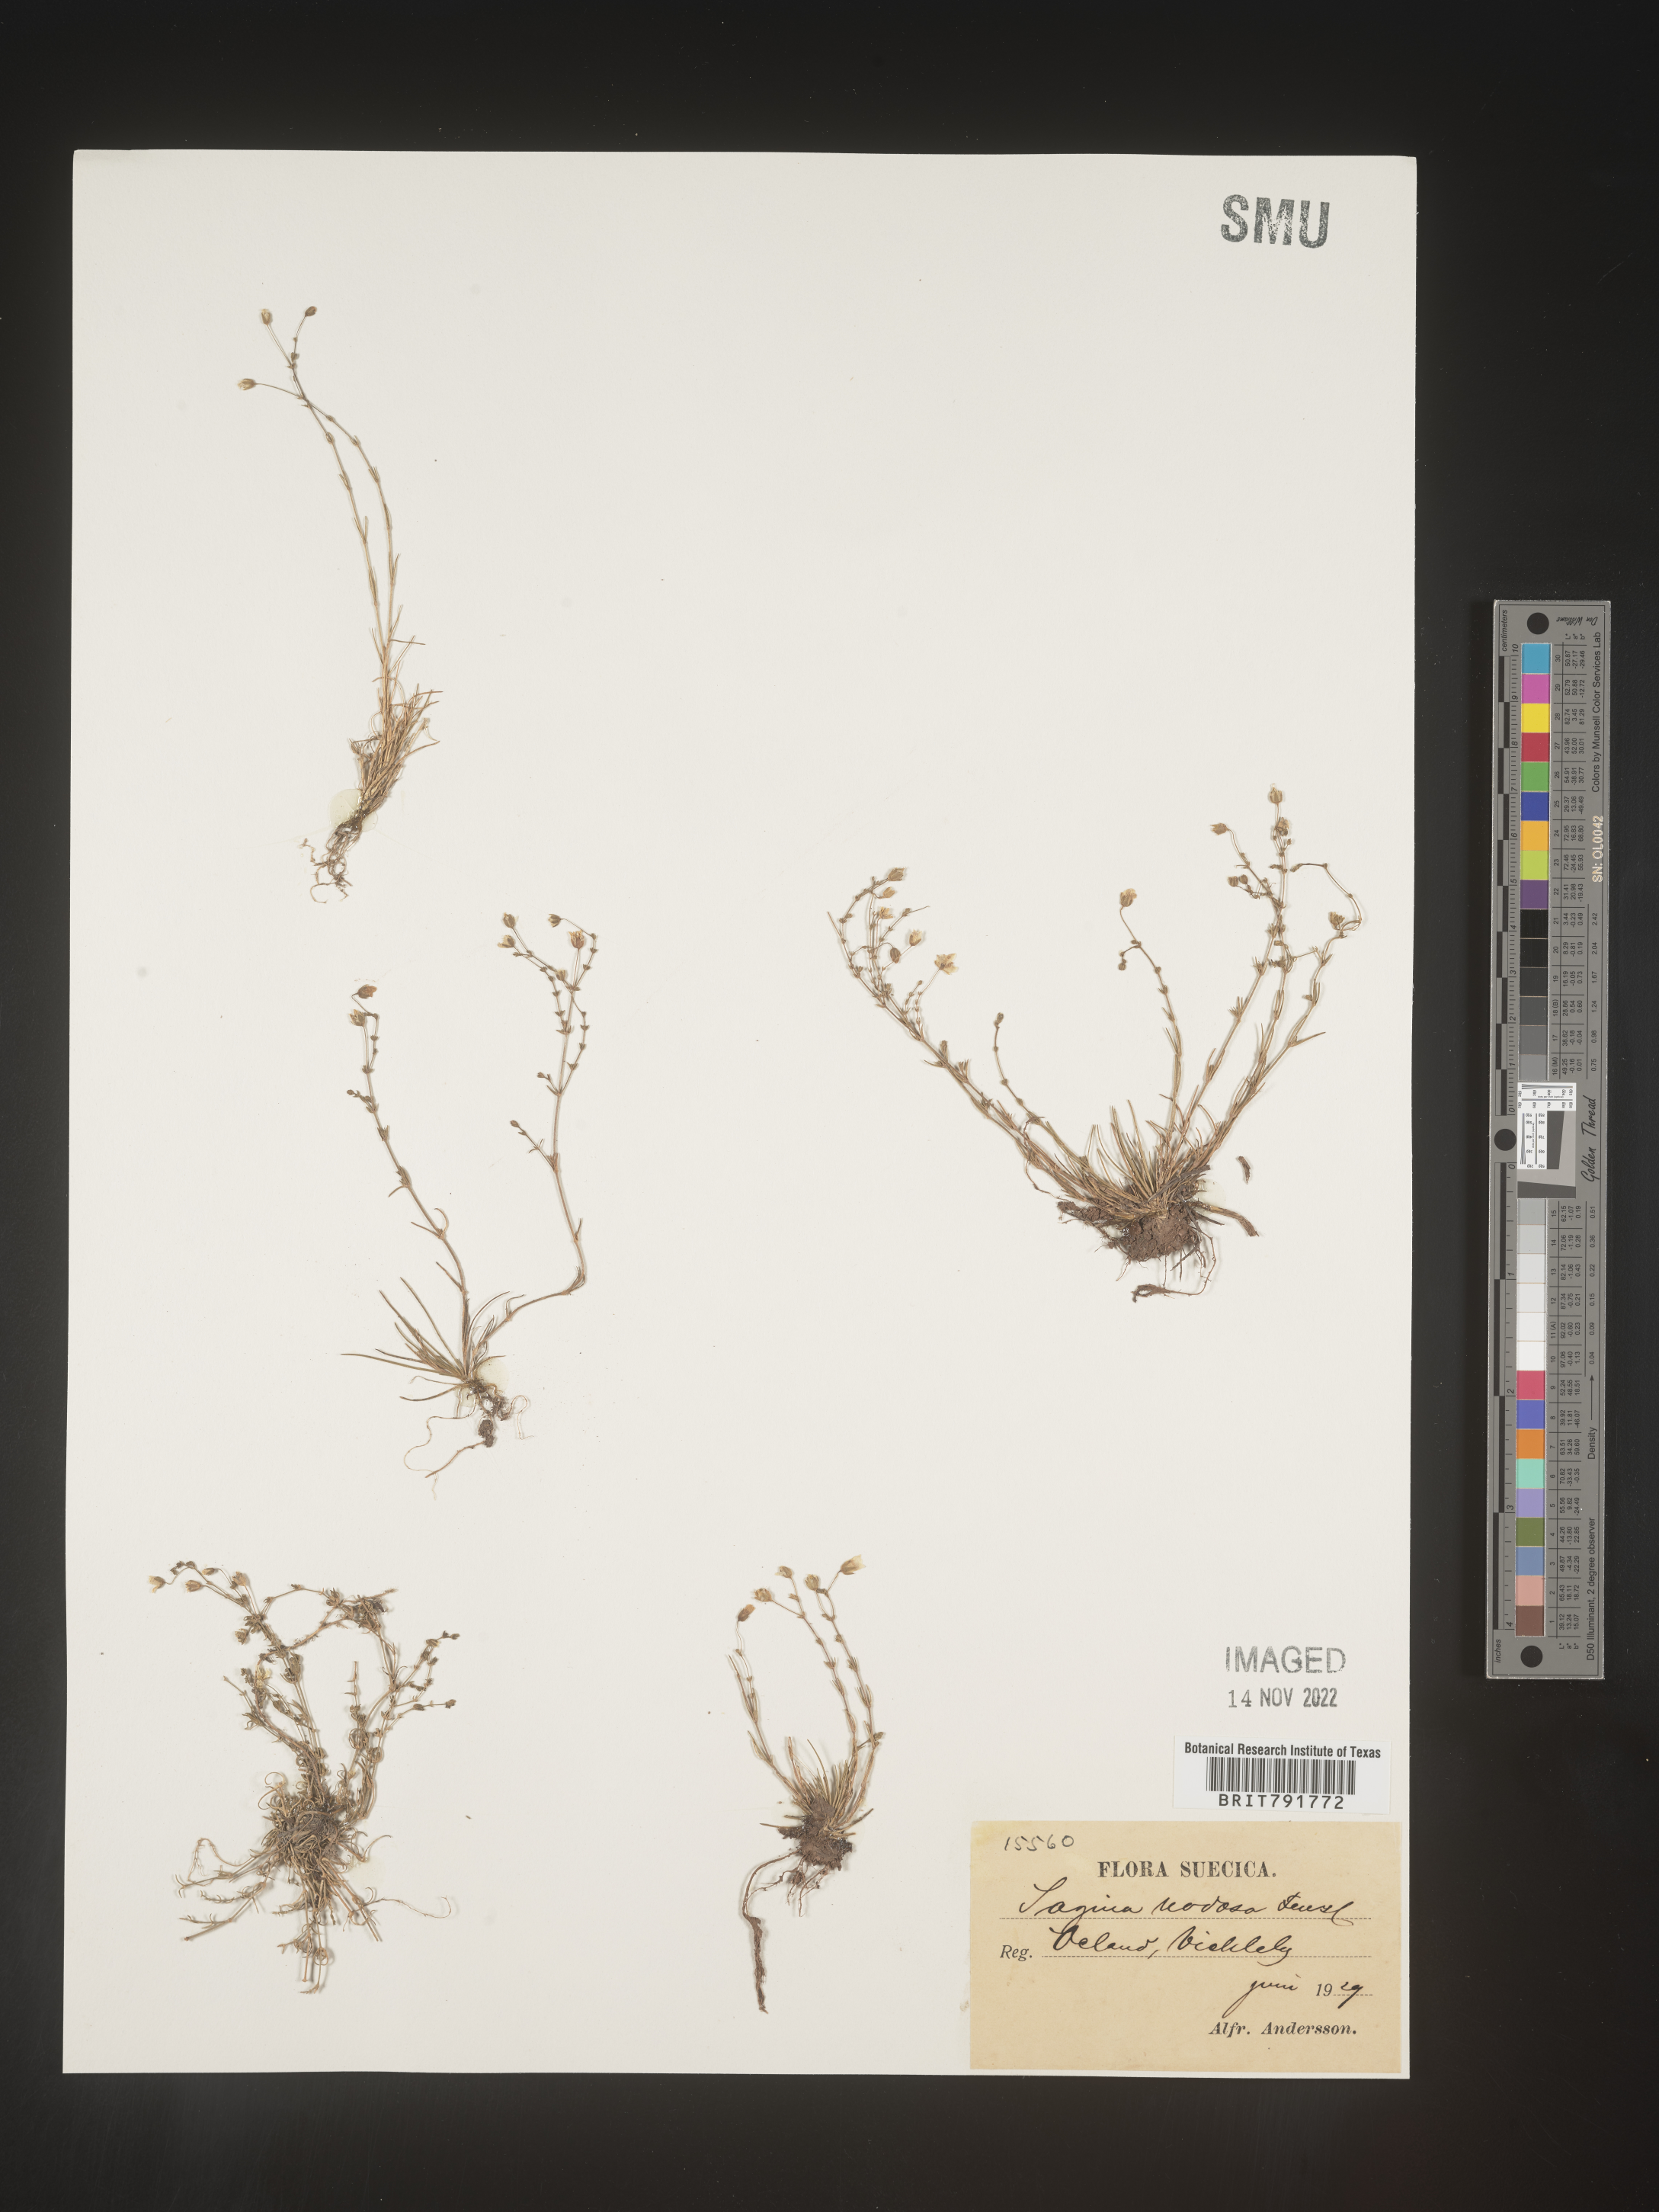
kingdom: Plantae
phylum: Tracheophyta
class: Magnoliopsida
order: Caryophyllales
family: Caryophyllaceae
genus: Sagina
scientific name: Sagina
